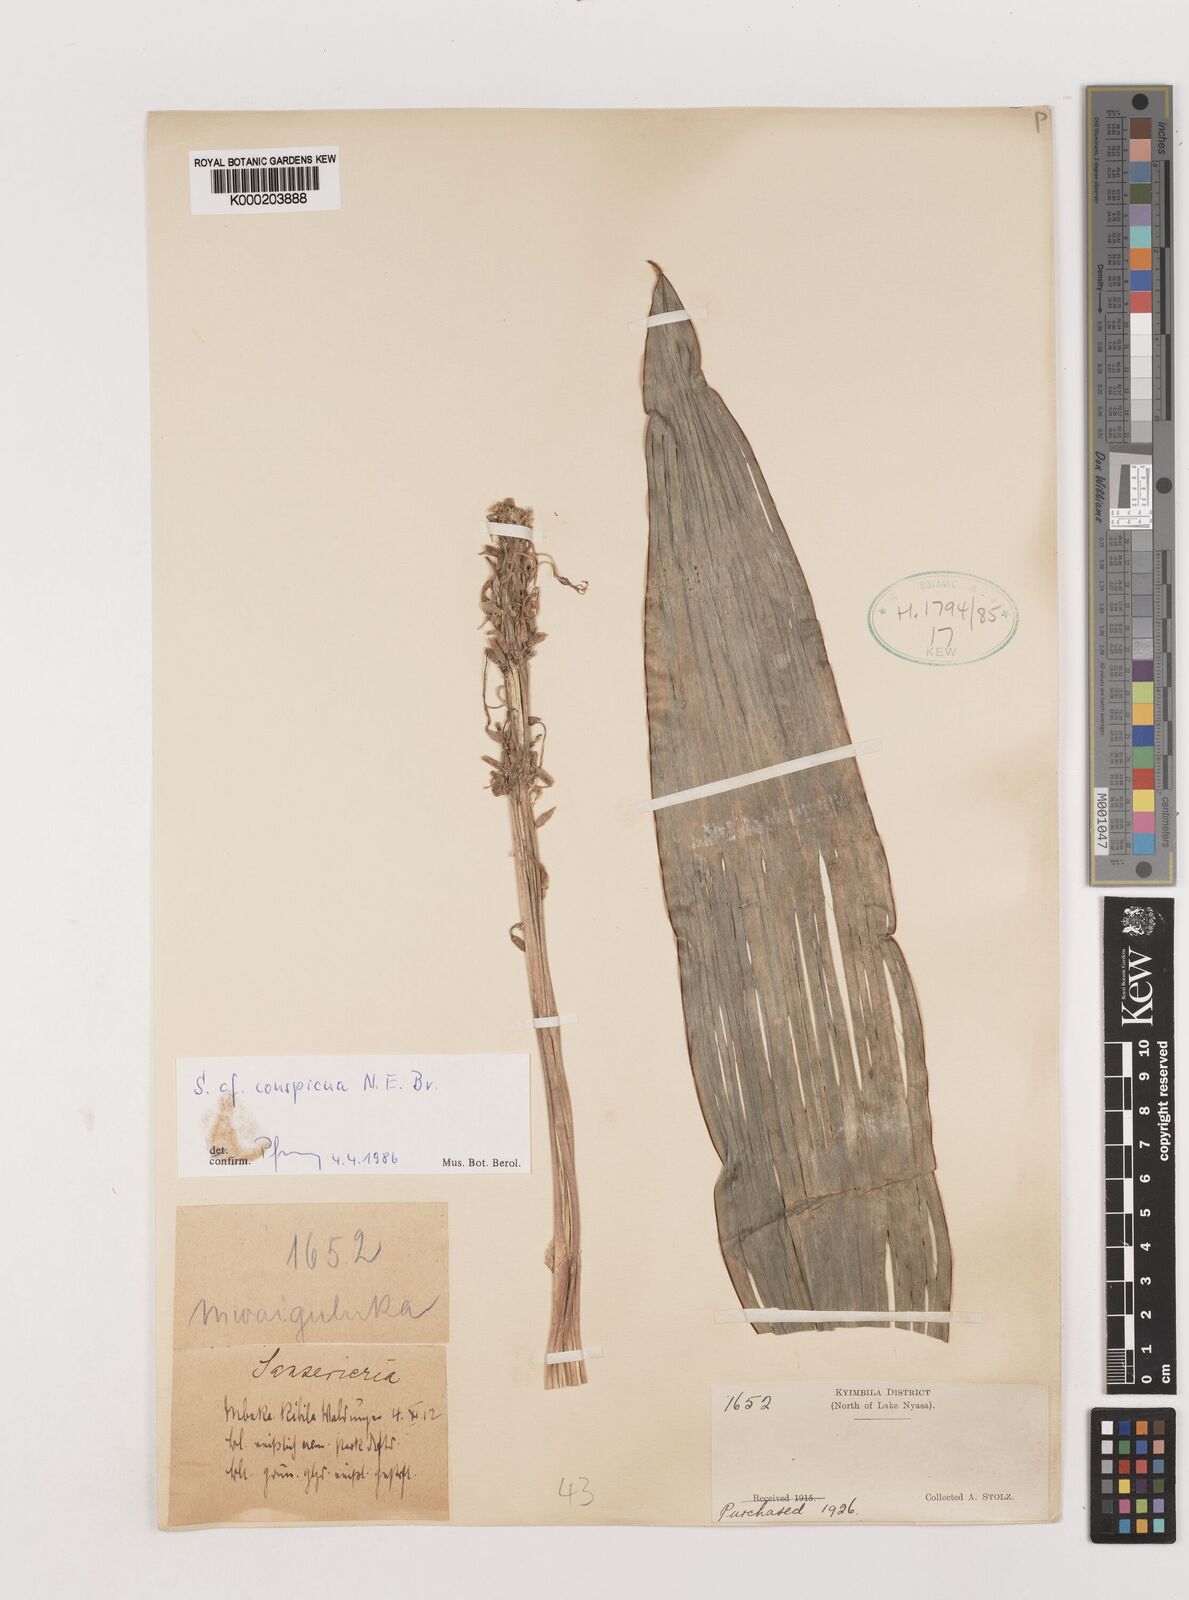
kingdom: Plantae
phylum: Tracheophyta
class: Liliopsida
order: Asparagales
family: Asparagaceae
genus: Dracaena
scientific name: Dracaena conspicua
